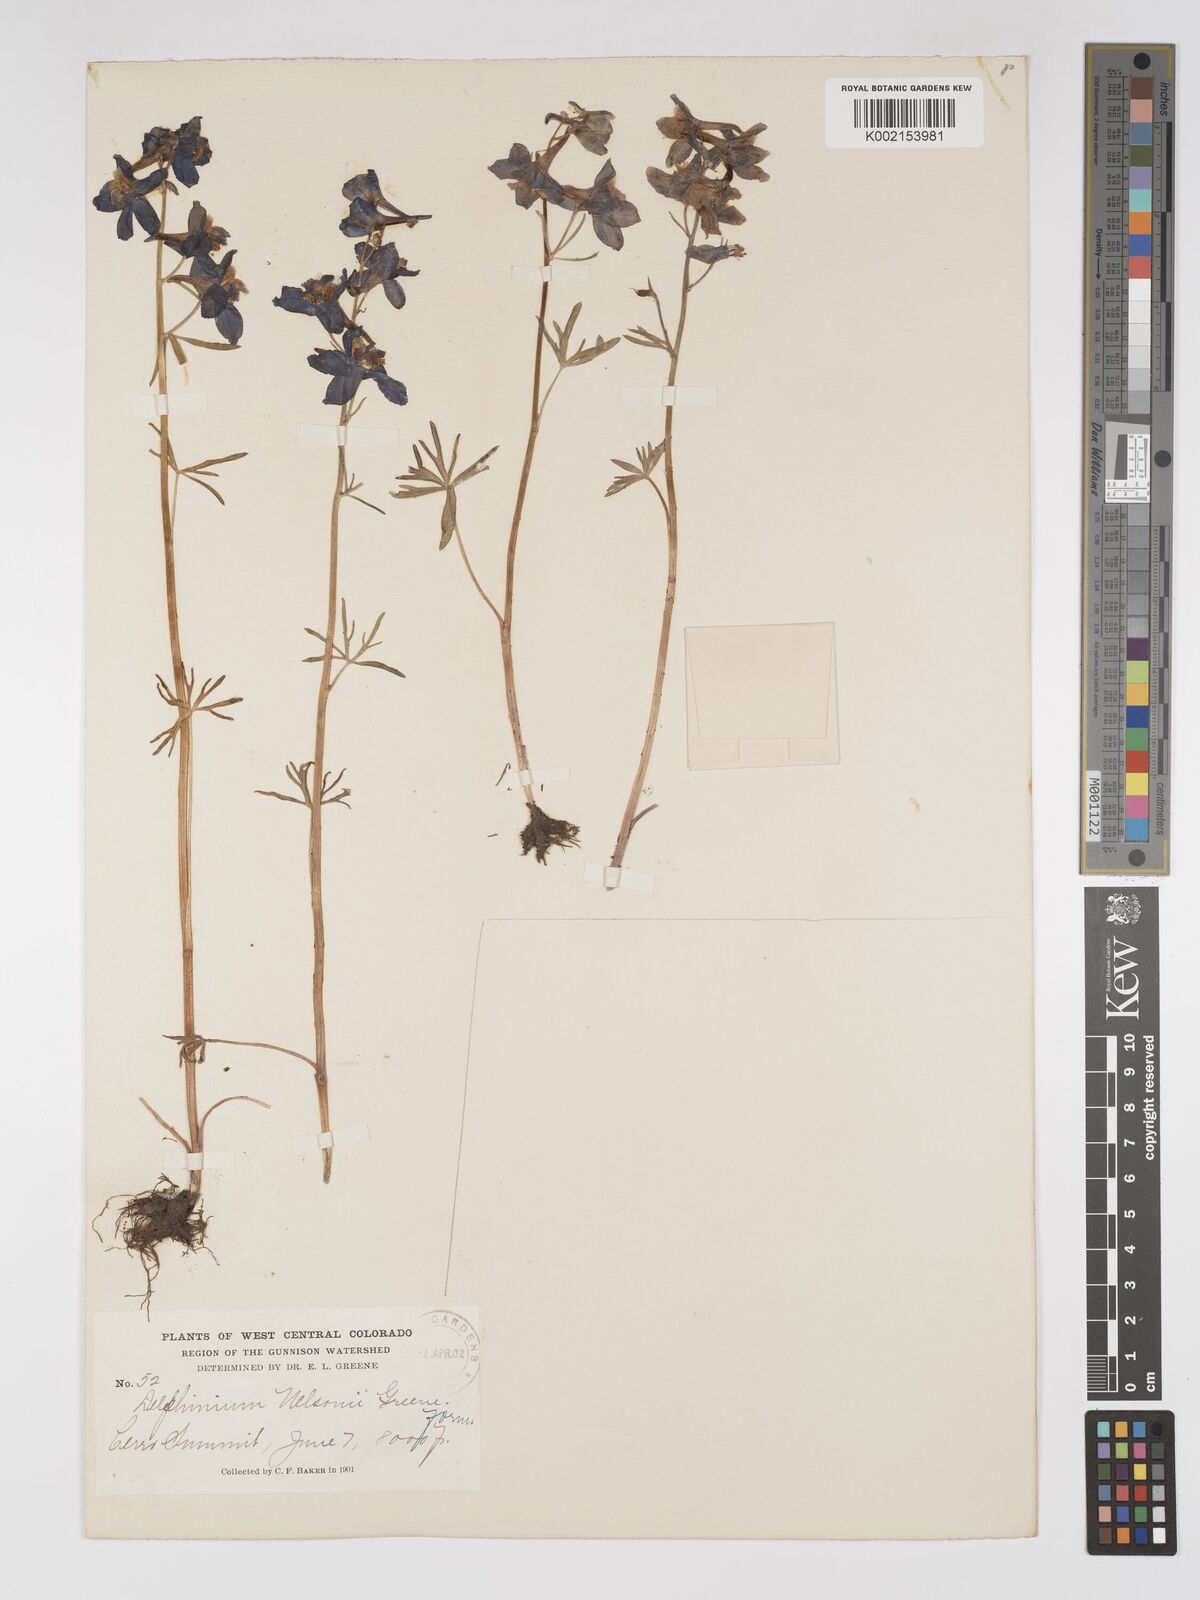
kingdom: Plantae
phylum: Tracheophyta
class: Magnoliopsida
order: Ranunculales
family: Ranunculaceae
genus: Delphinium
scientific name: Delphinium nuttallianum
